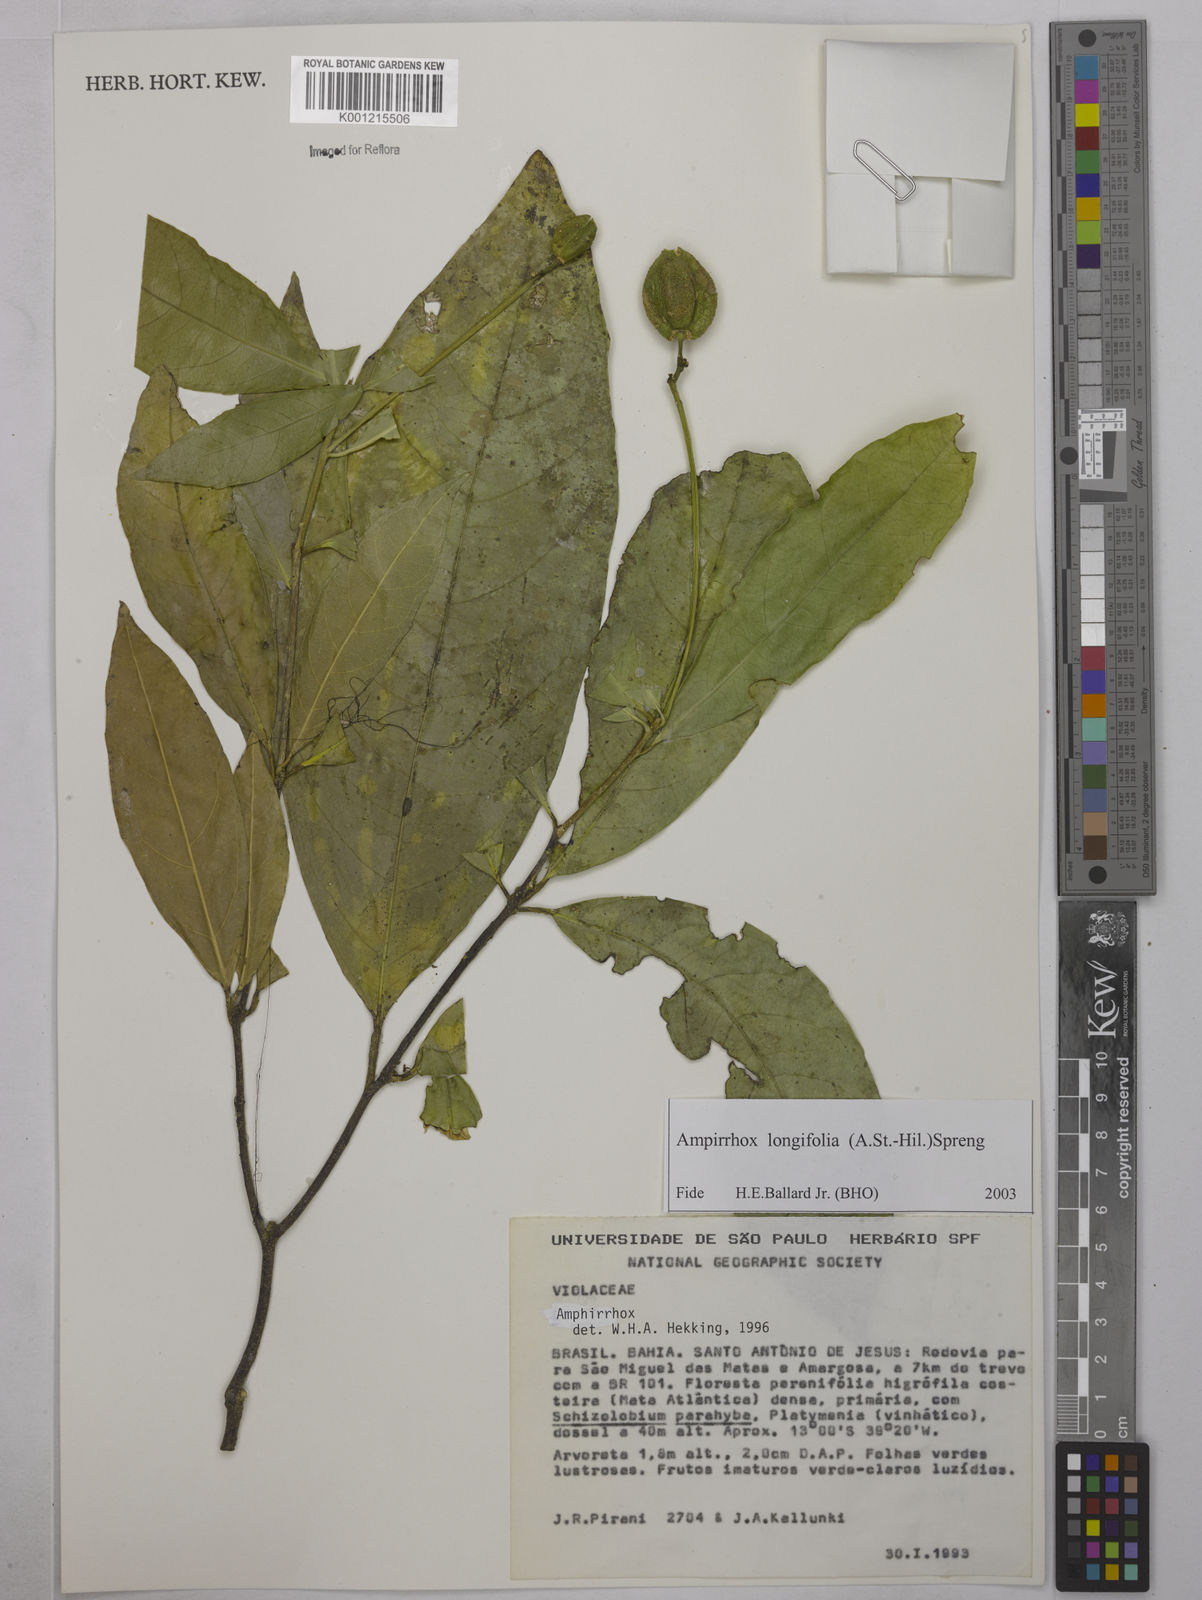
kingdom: Plantae
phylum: Tracheophyta
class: Magnoliopsida
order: Malpighiales
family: Violaceae
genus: Amphirrhox
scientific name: Amphirrhox longifolia
